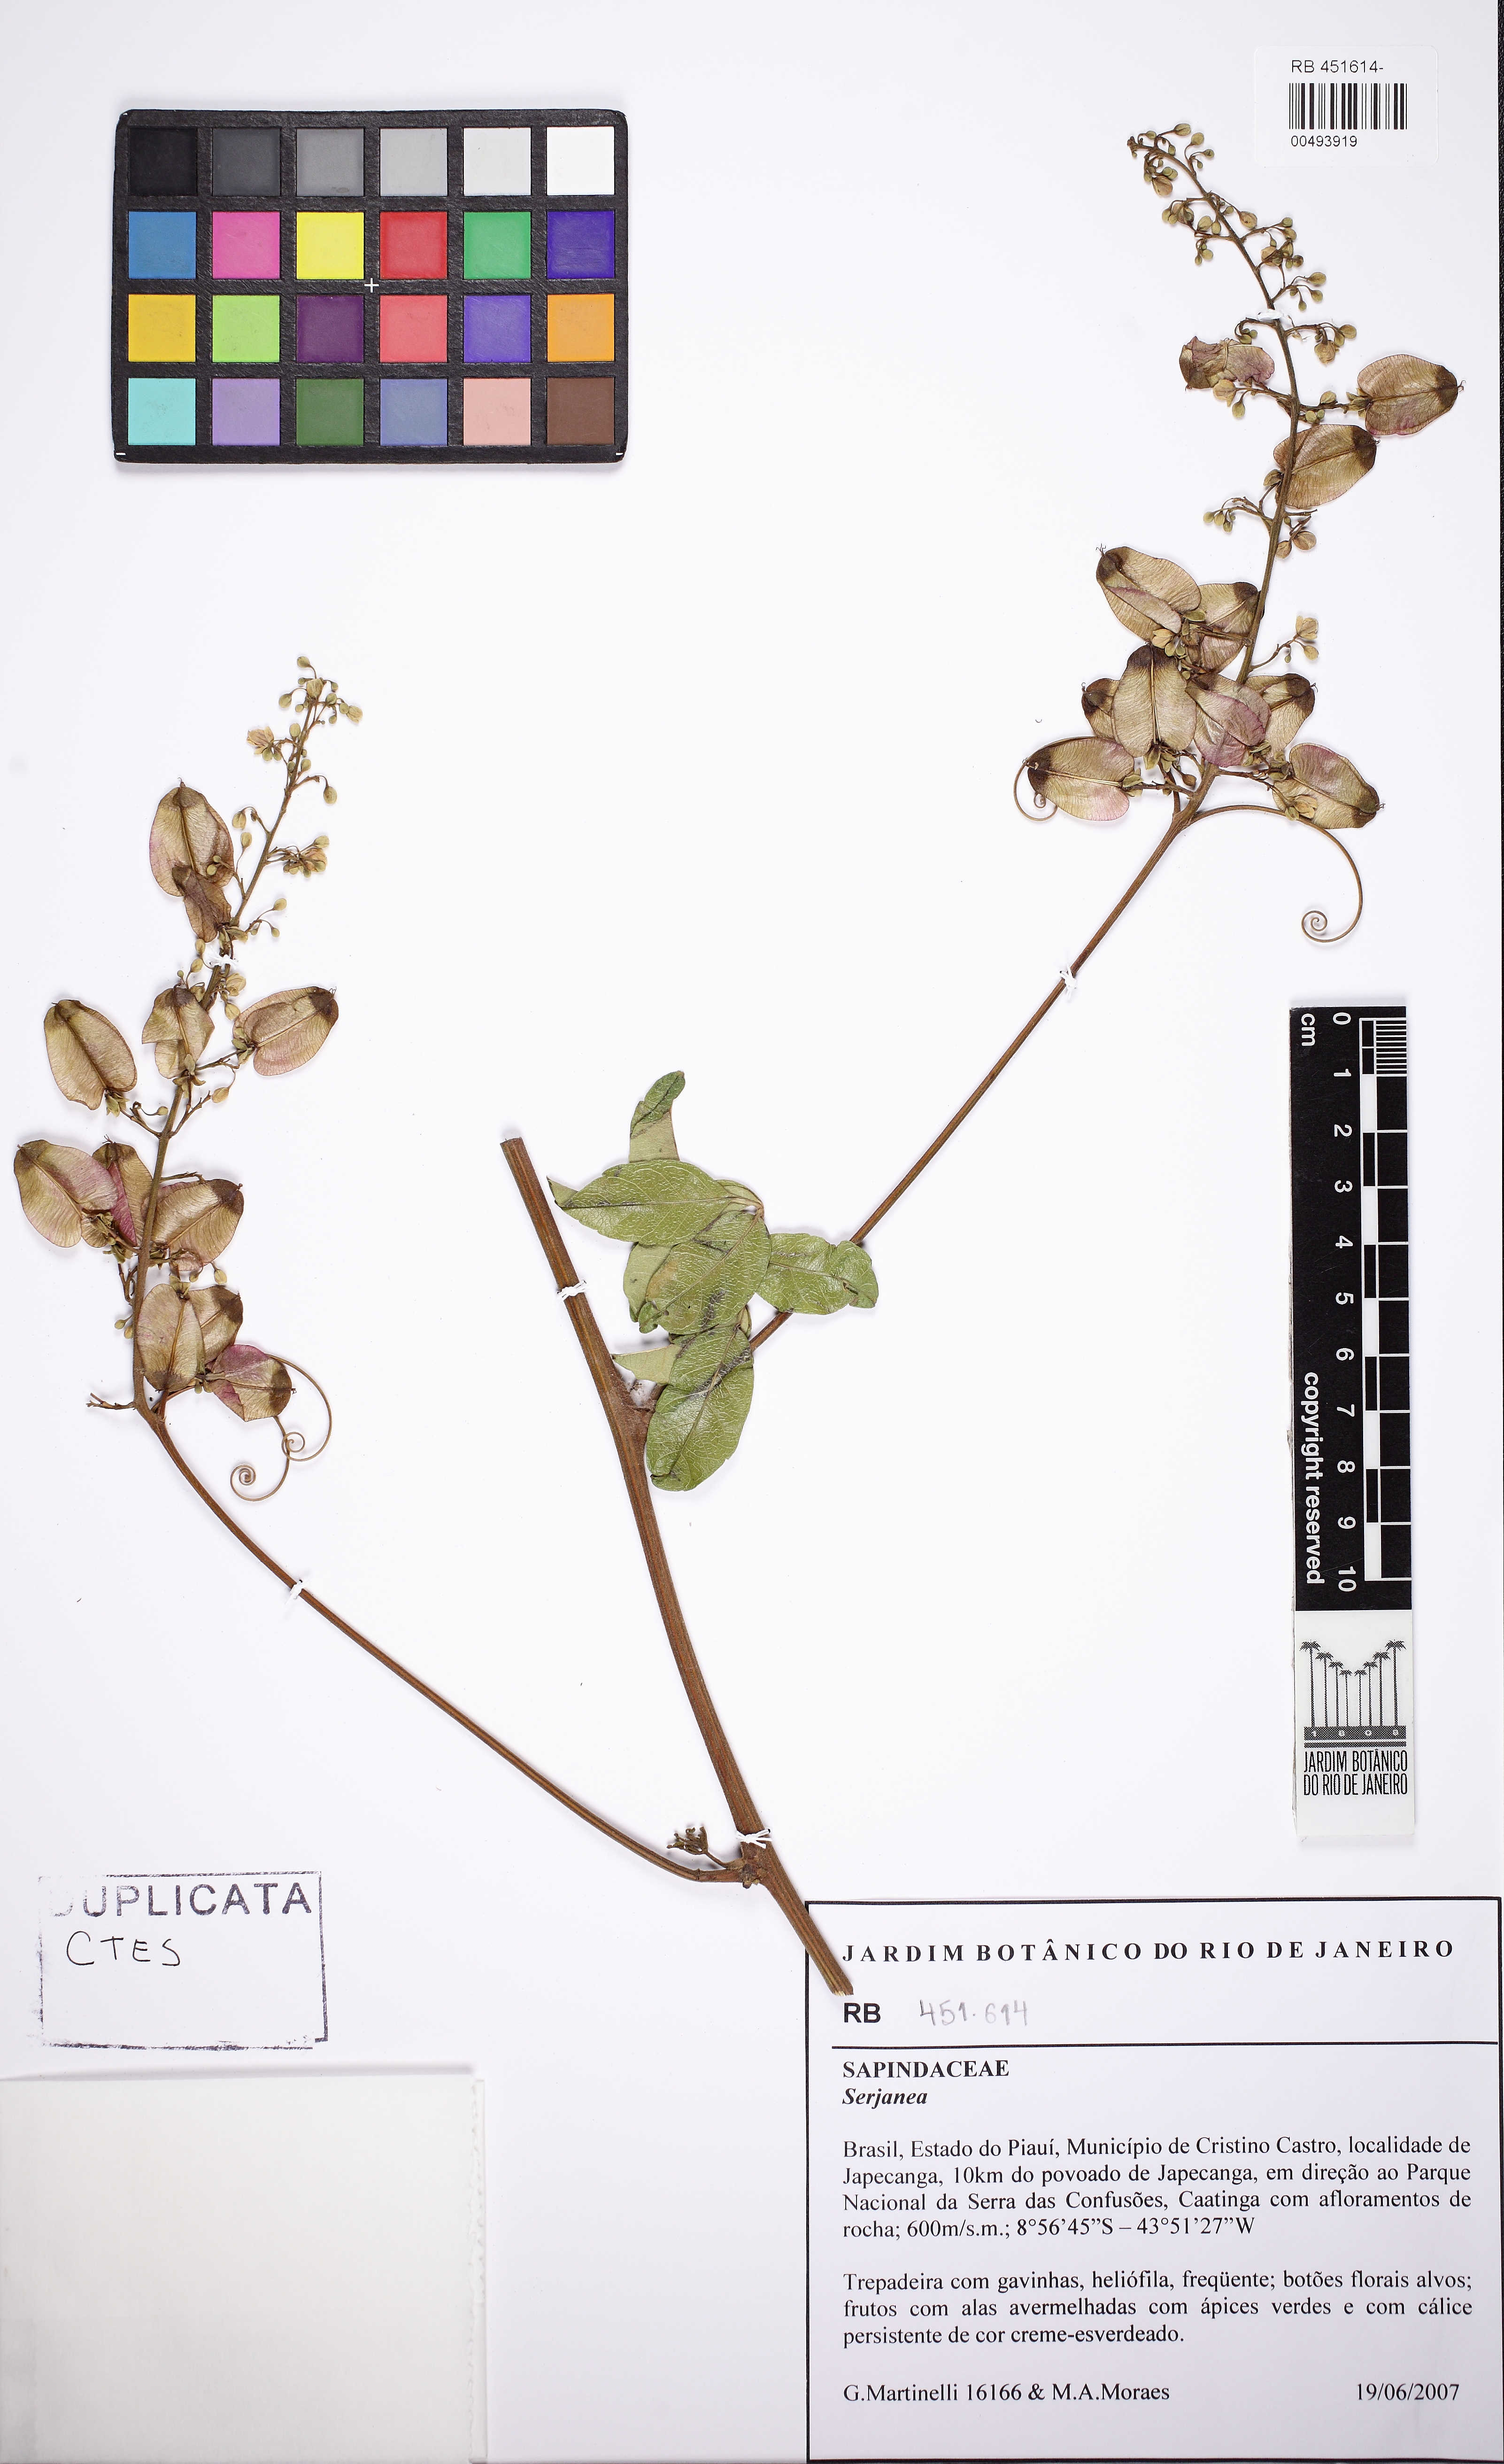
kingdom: Plantae
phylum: Tracheophyta
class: Magnoliopsida
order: Sapindales
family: Sapindaceae
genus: Serjania
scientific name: Serjania
